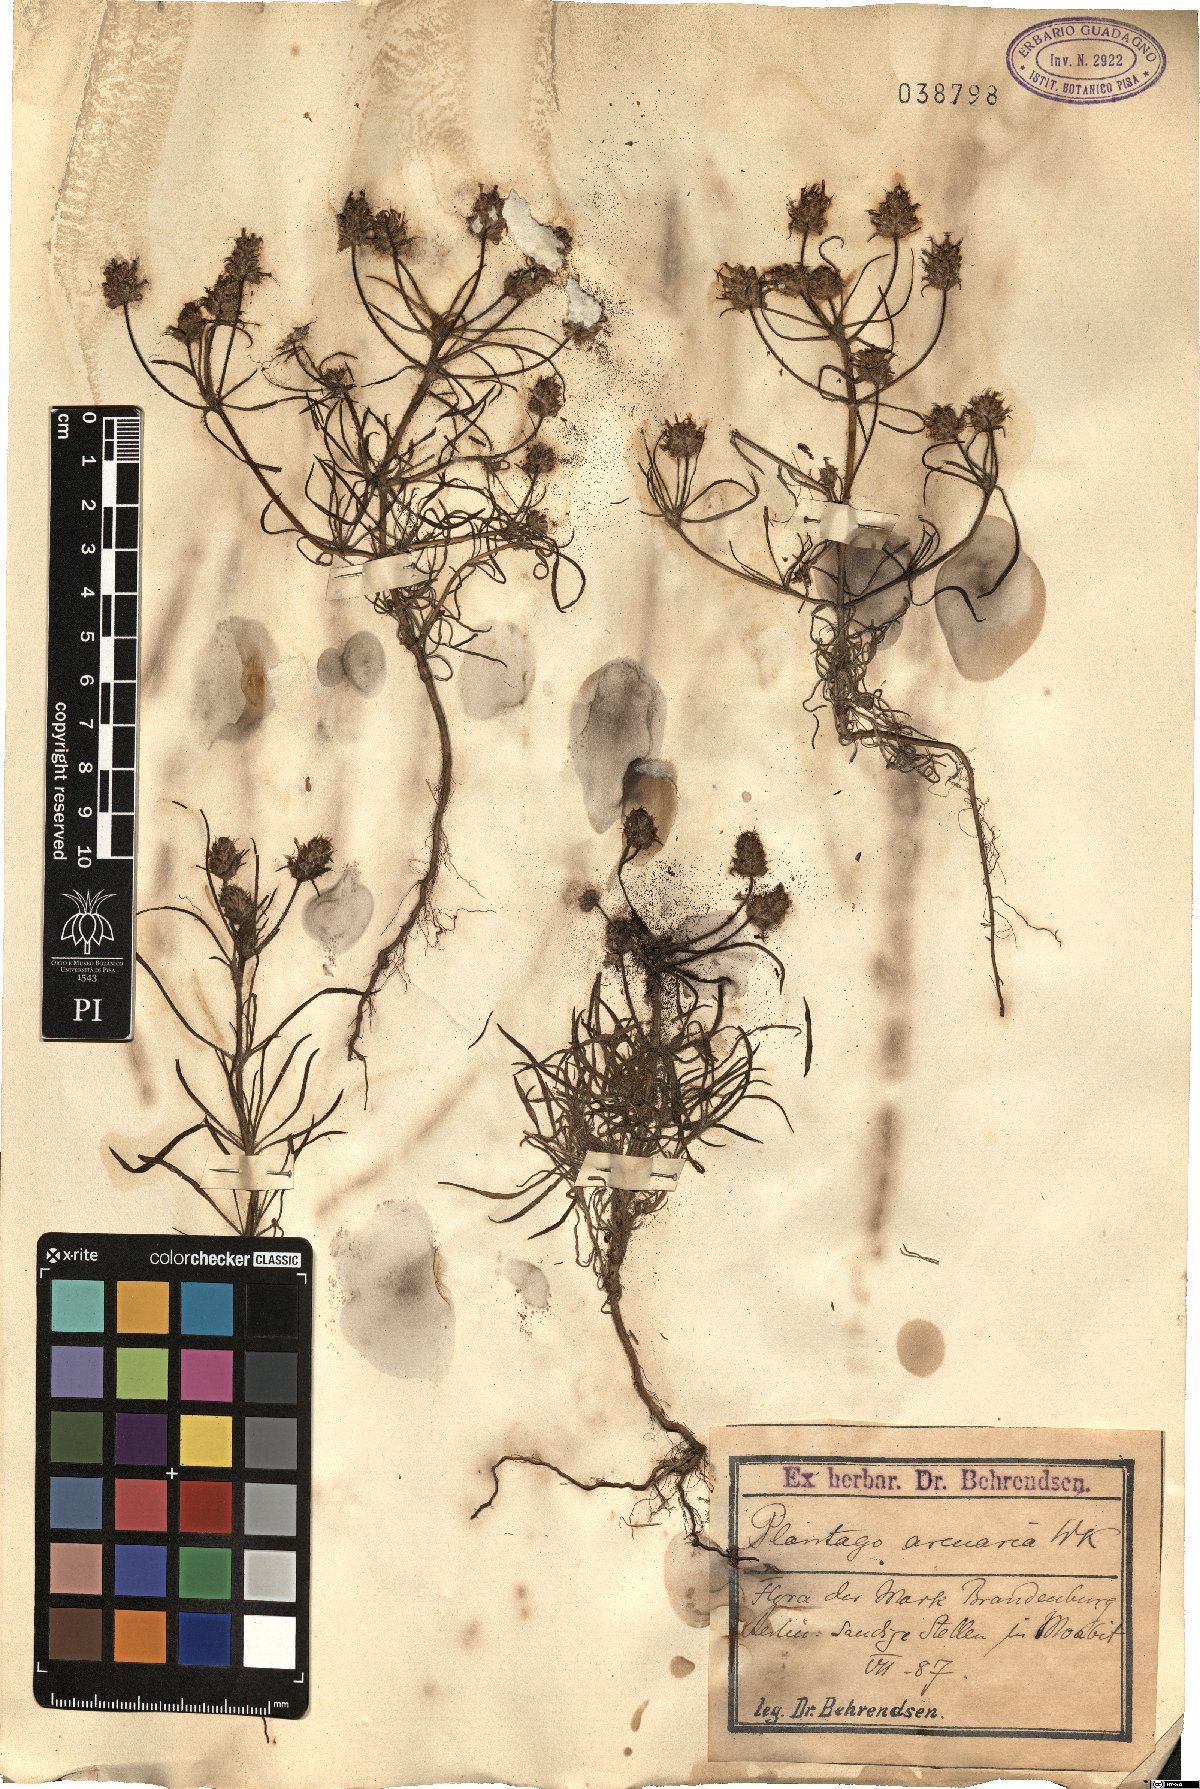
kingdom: Plantae
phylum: Tracheophyta
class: Magnoliopsida
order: Lamiales
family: Plantaginaceae
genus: Plantago
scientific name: Plantago arenaria
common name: Branched plantain
